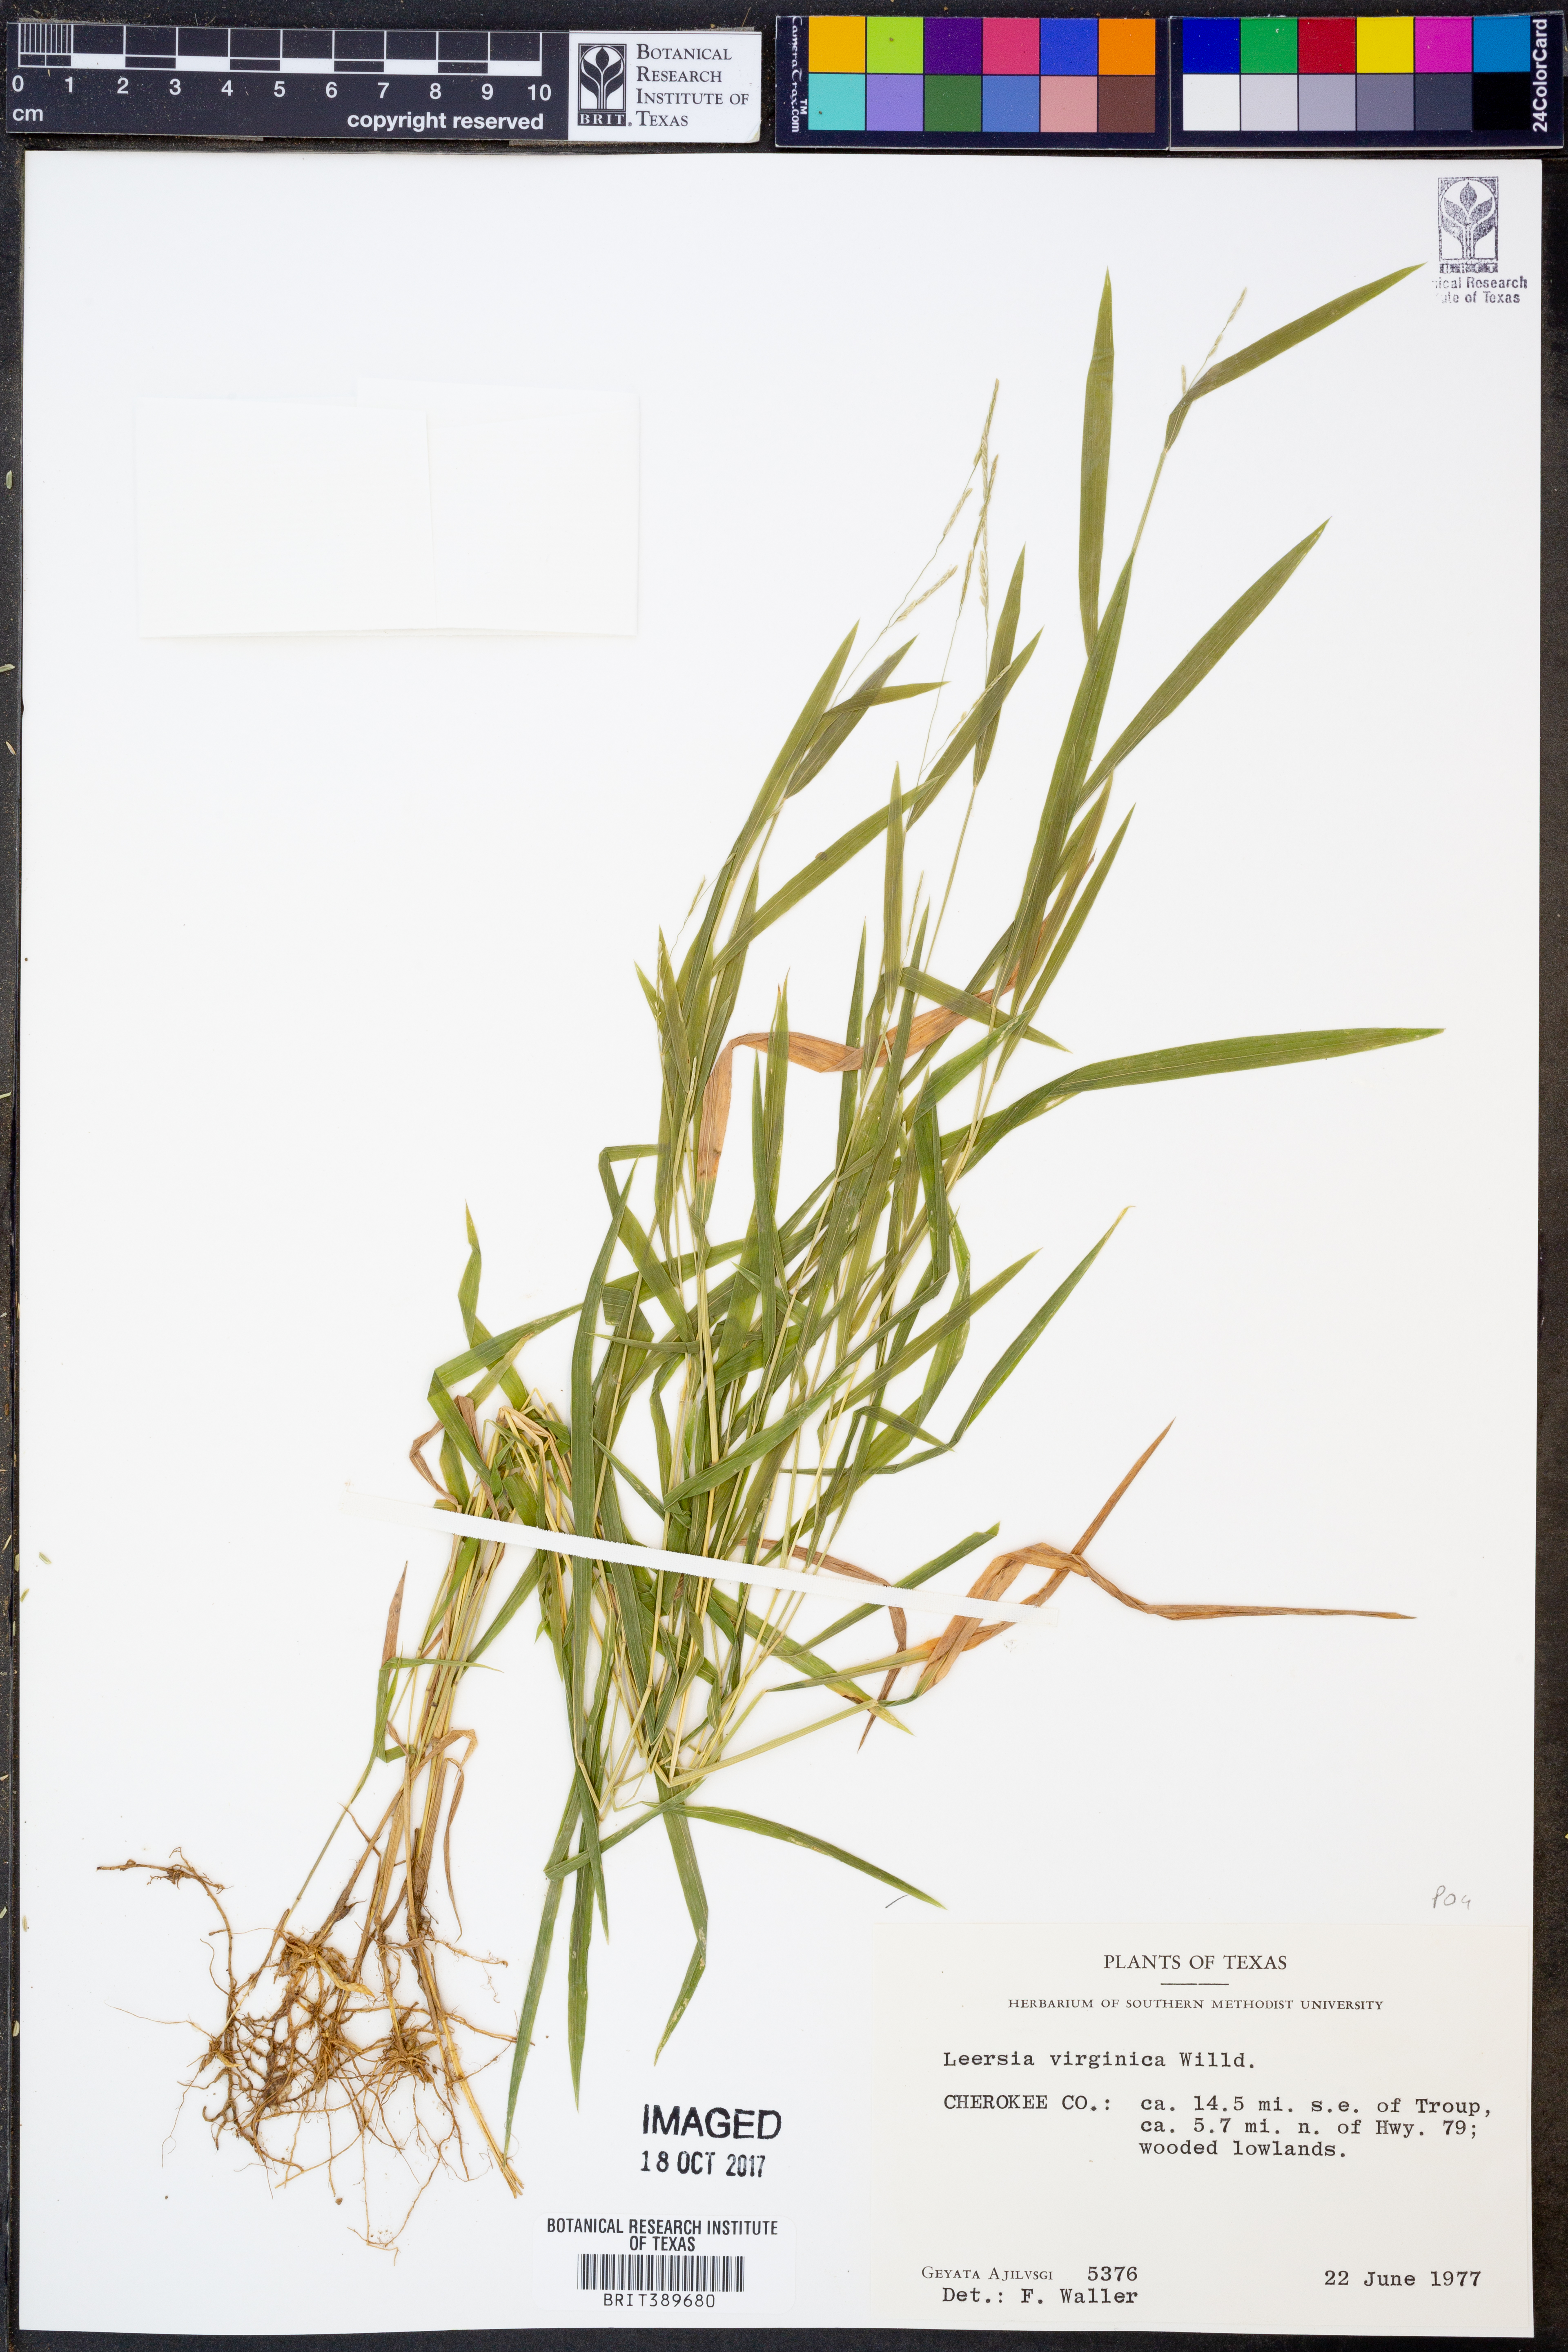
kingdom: Plantae
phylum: Tracheophyta
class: Liliopsida
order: Poales
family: Poaceae
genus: Leersia
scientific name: Leersia virginica
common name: White cutgrass
